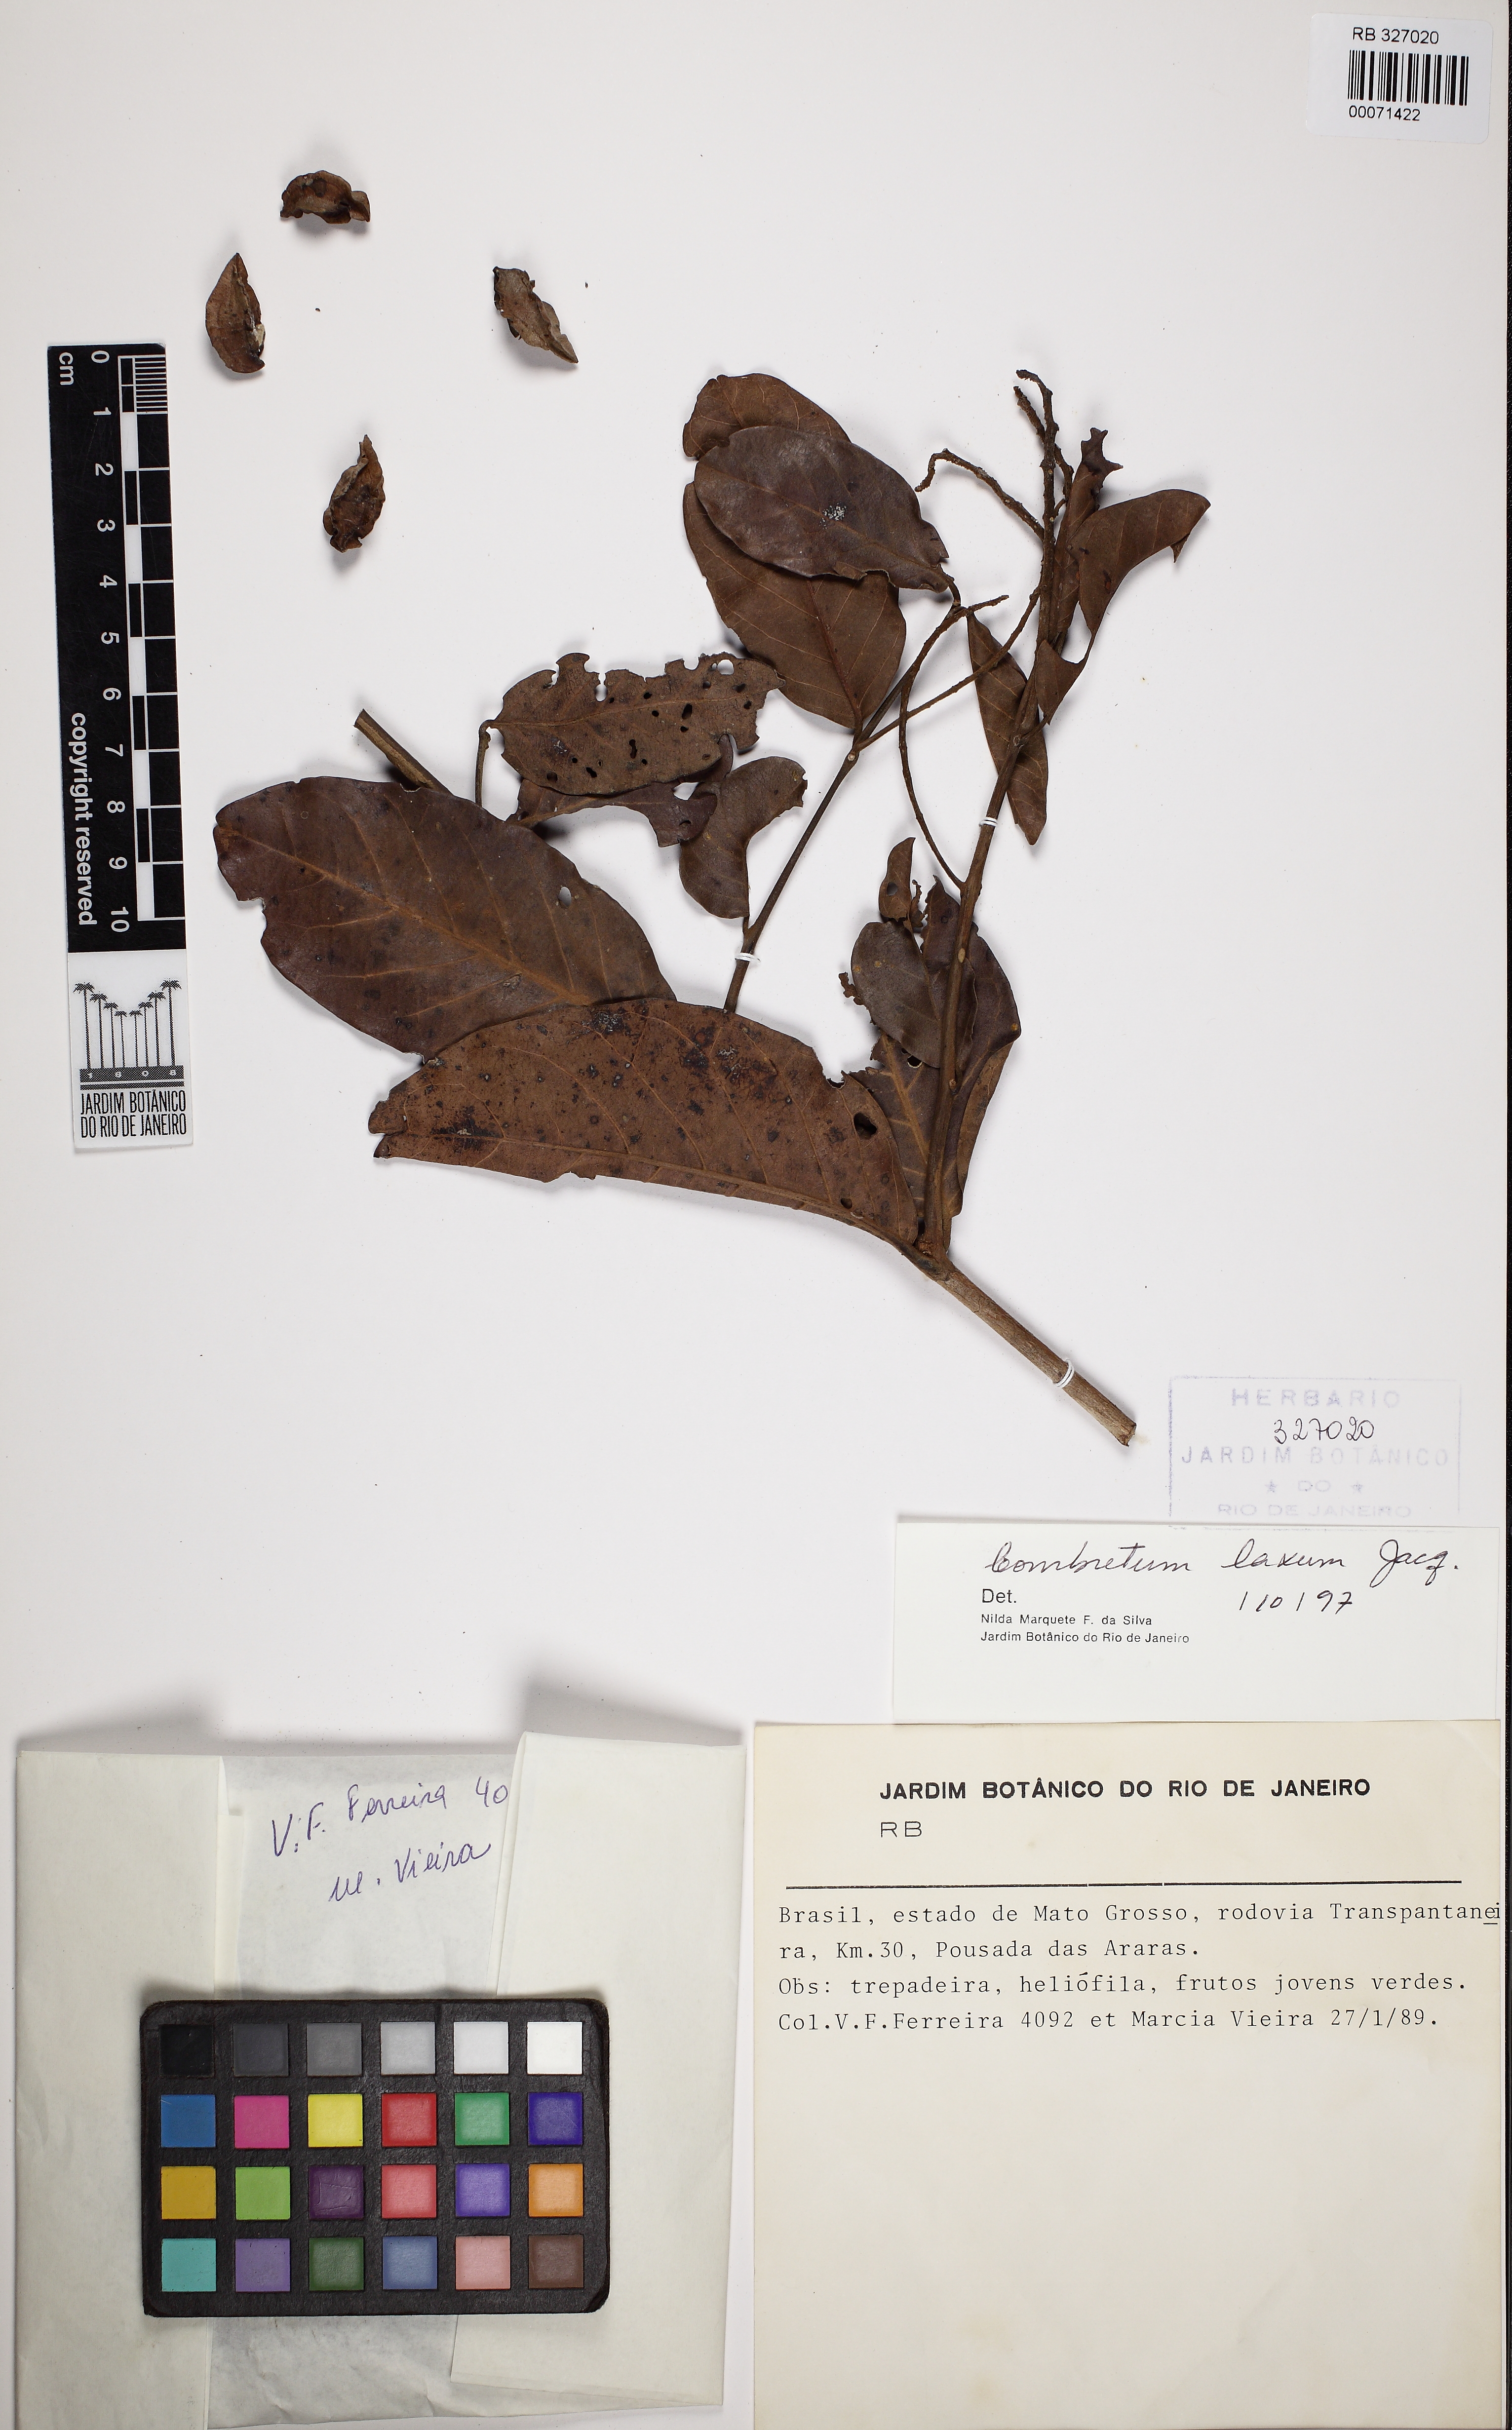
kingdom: Plantae
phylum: Tracheophyta
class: Magnoliopsida
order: Myrtales
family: Combretaceae
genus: Combretum
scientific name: Combretum laxum
